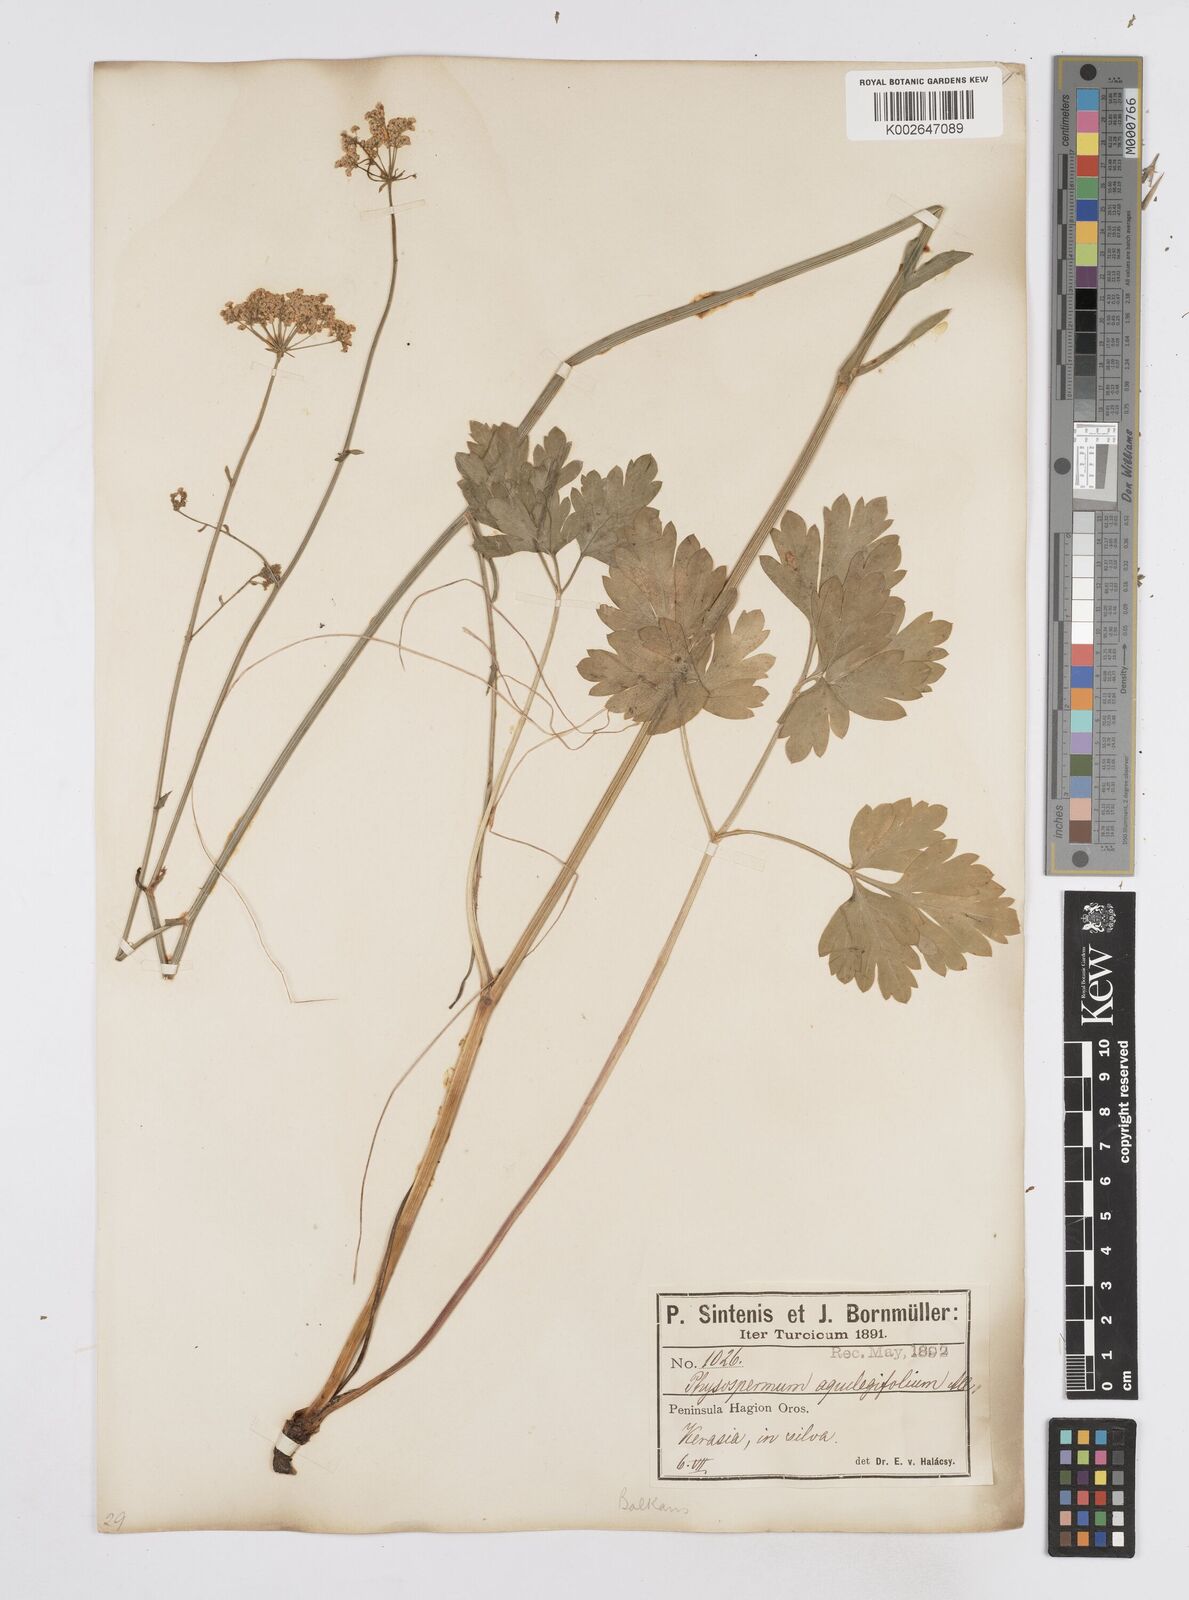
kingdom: Plantae
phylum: Tracheophyta
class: Magnoliopsida
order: Apiales
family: Apiaceae
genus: Physospermum
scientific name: Physospermum cornubiense
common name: Bladderseed
